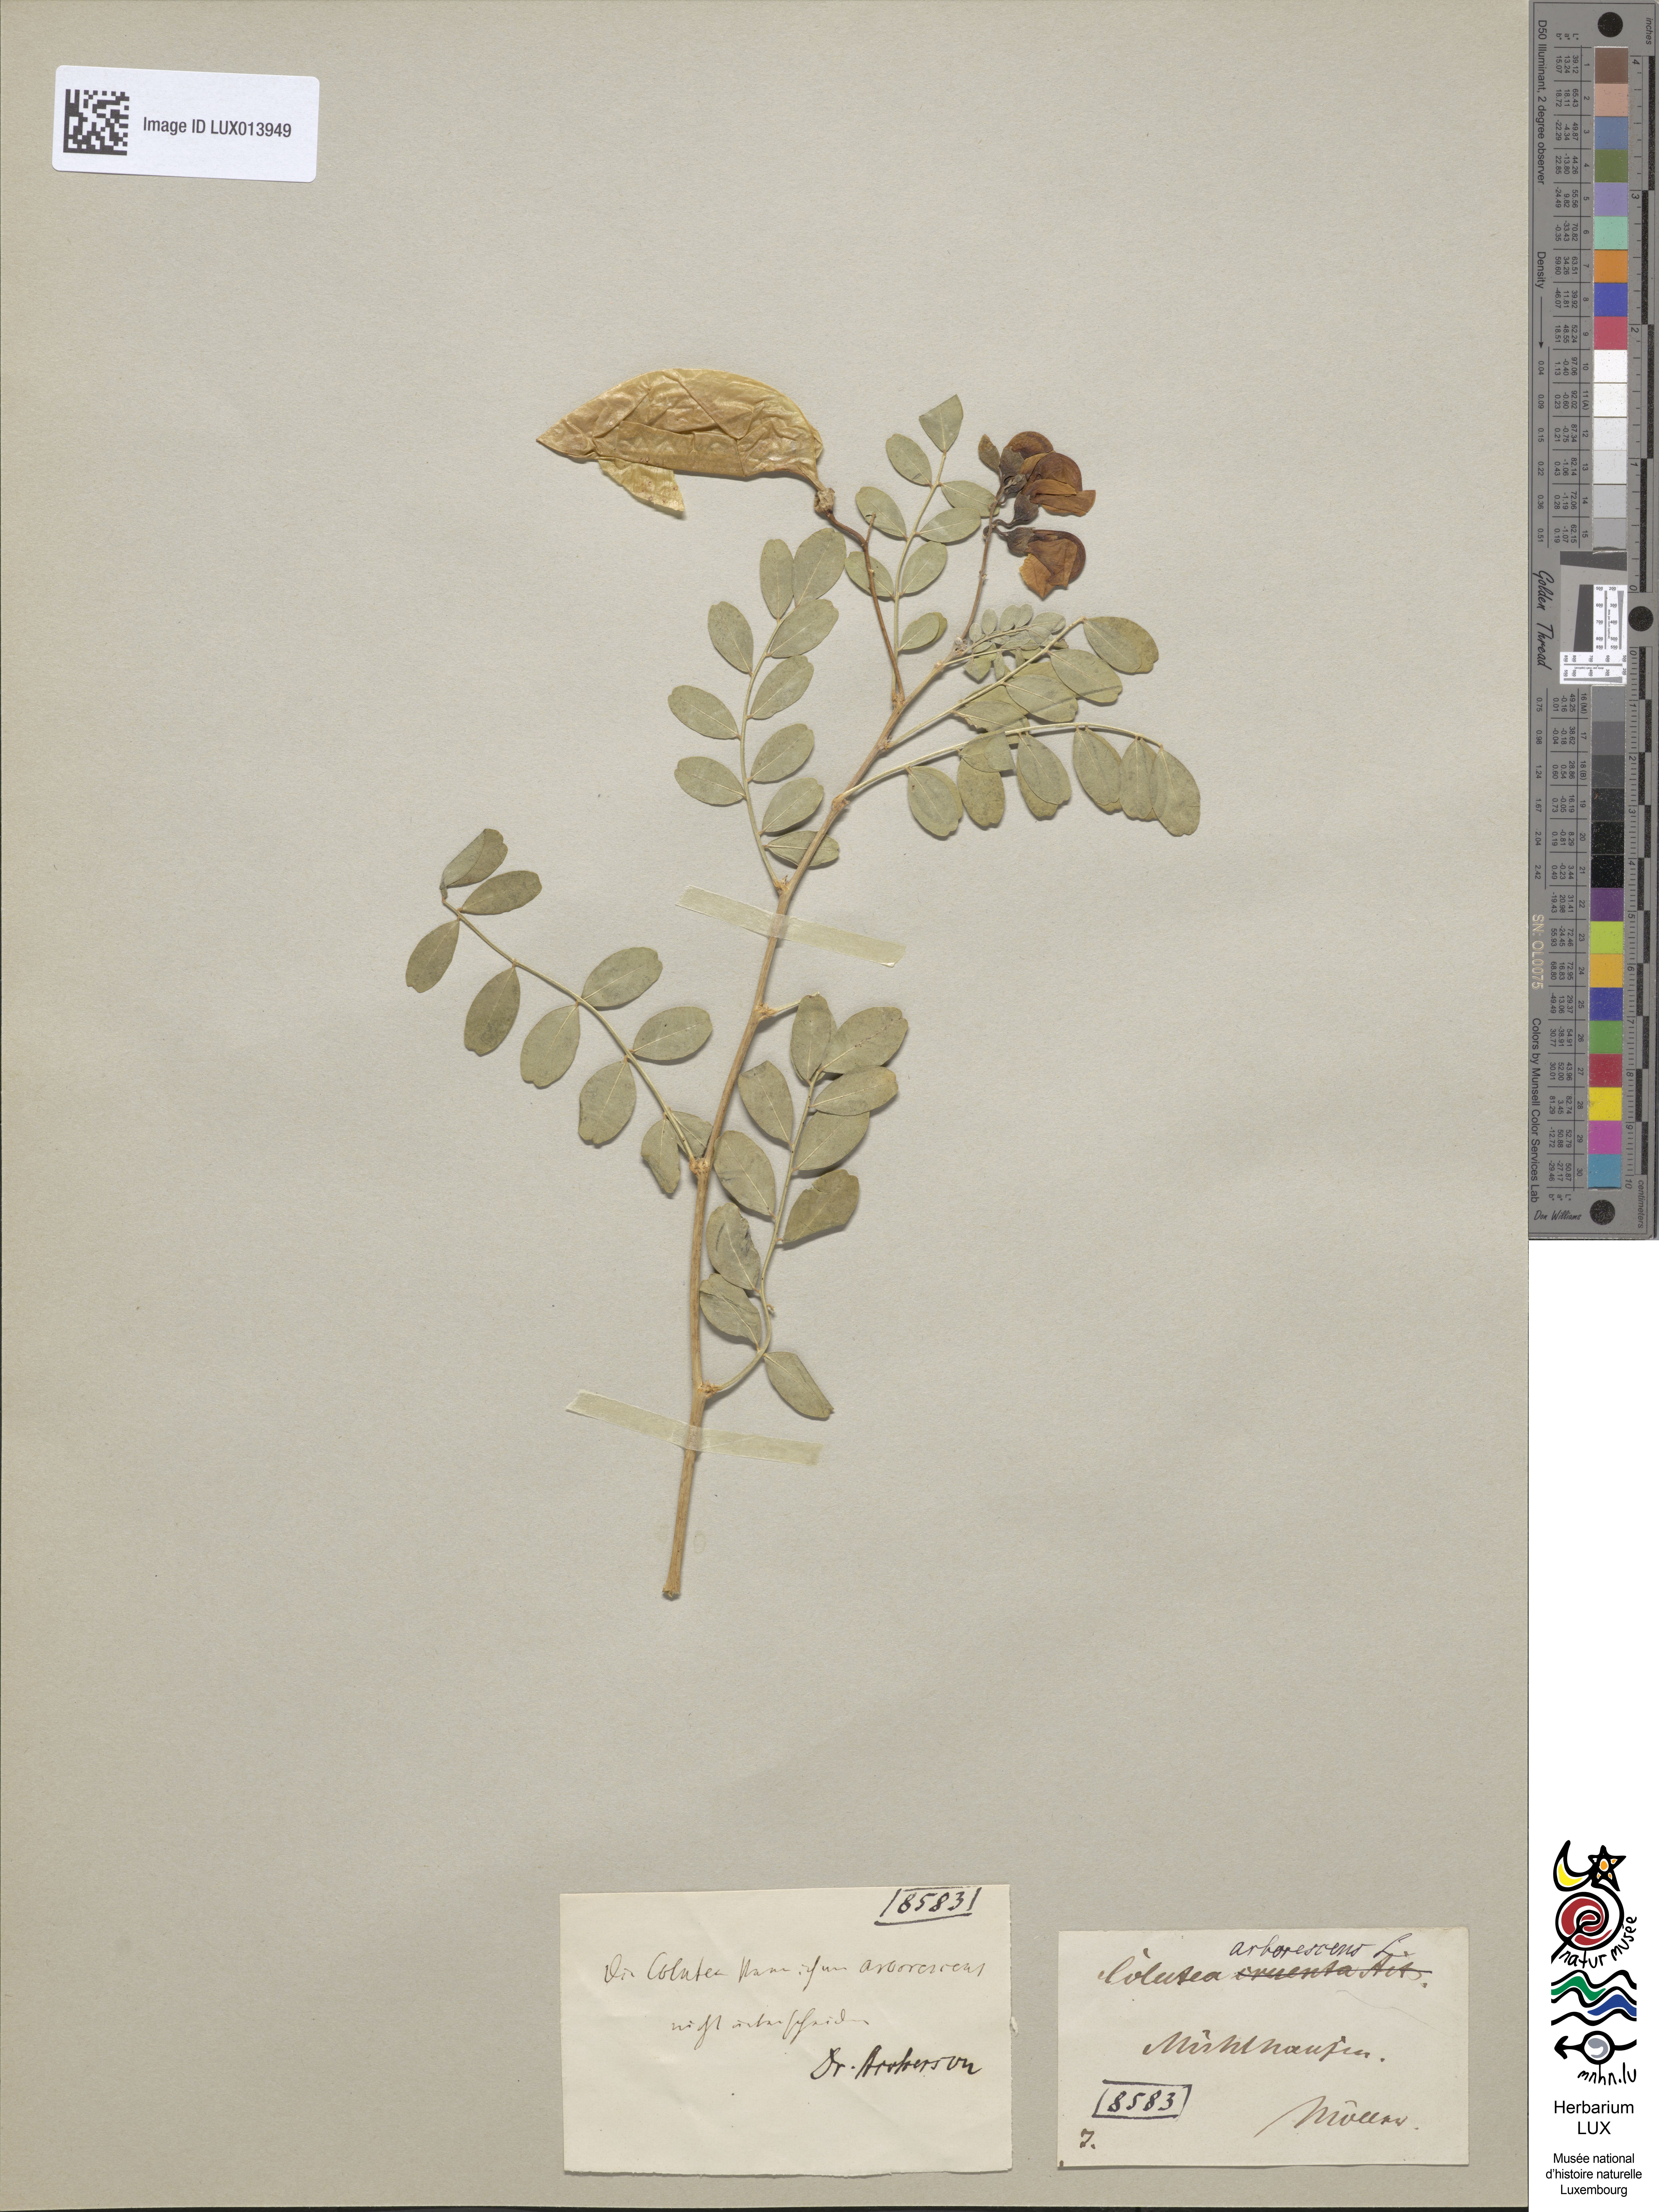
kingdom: Plantae
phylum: Tracheophyta
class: Magnoliopsida
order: Fabales
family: Fabaceae
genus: Colutea
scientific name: Colutea arborescens
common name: Bladder-senna
